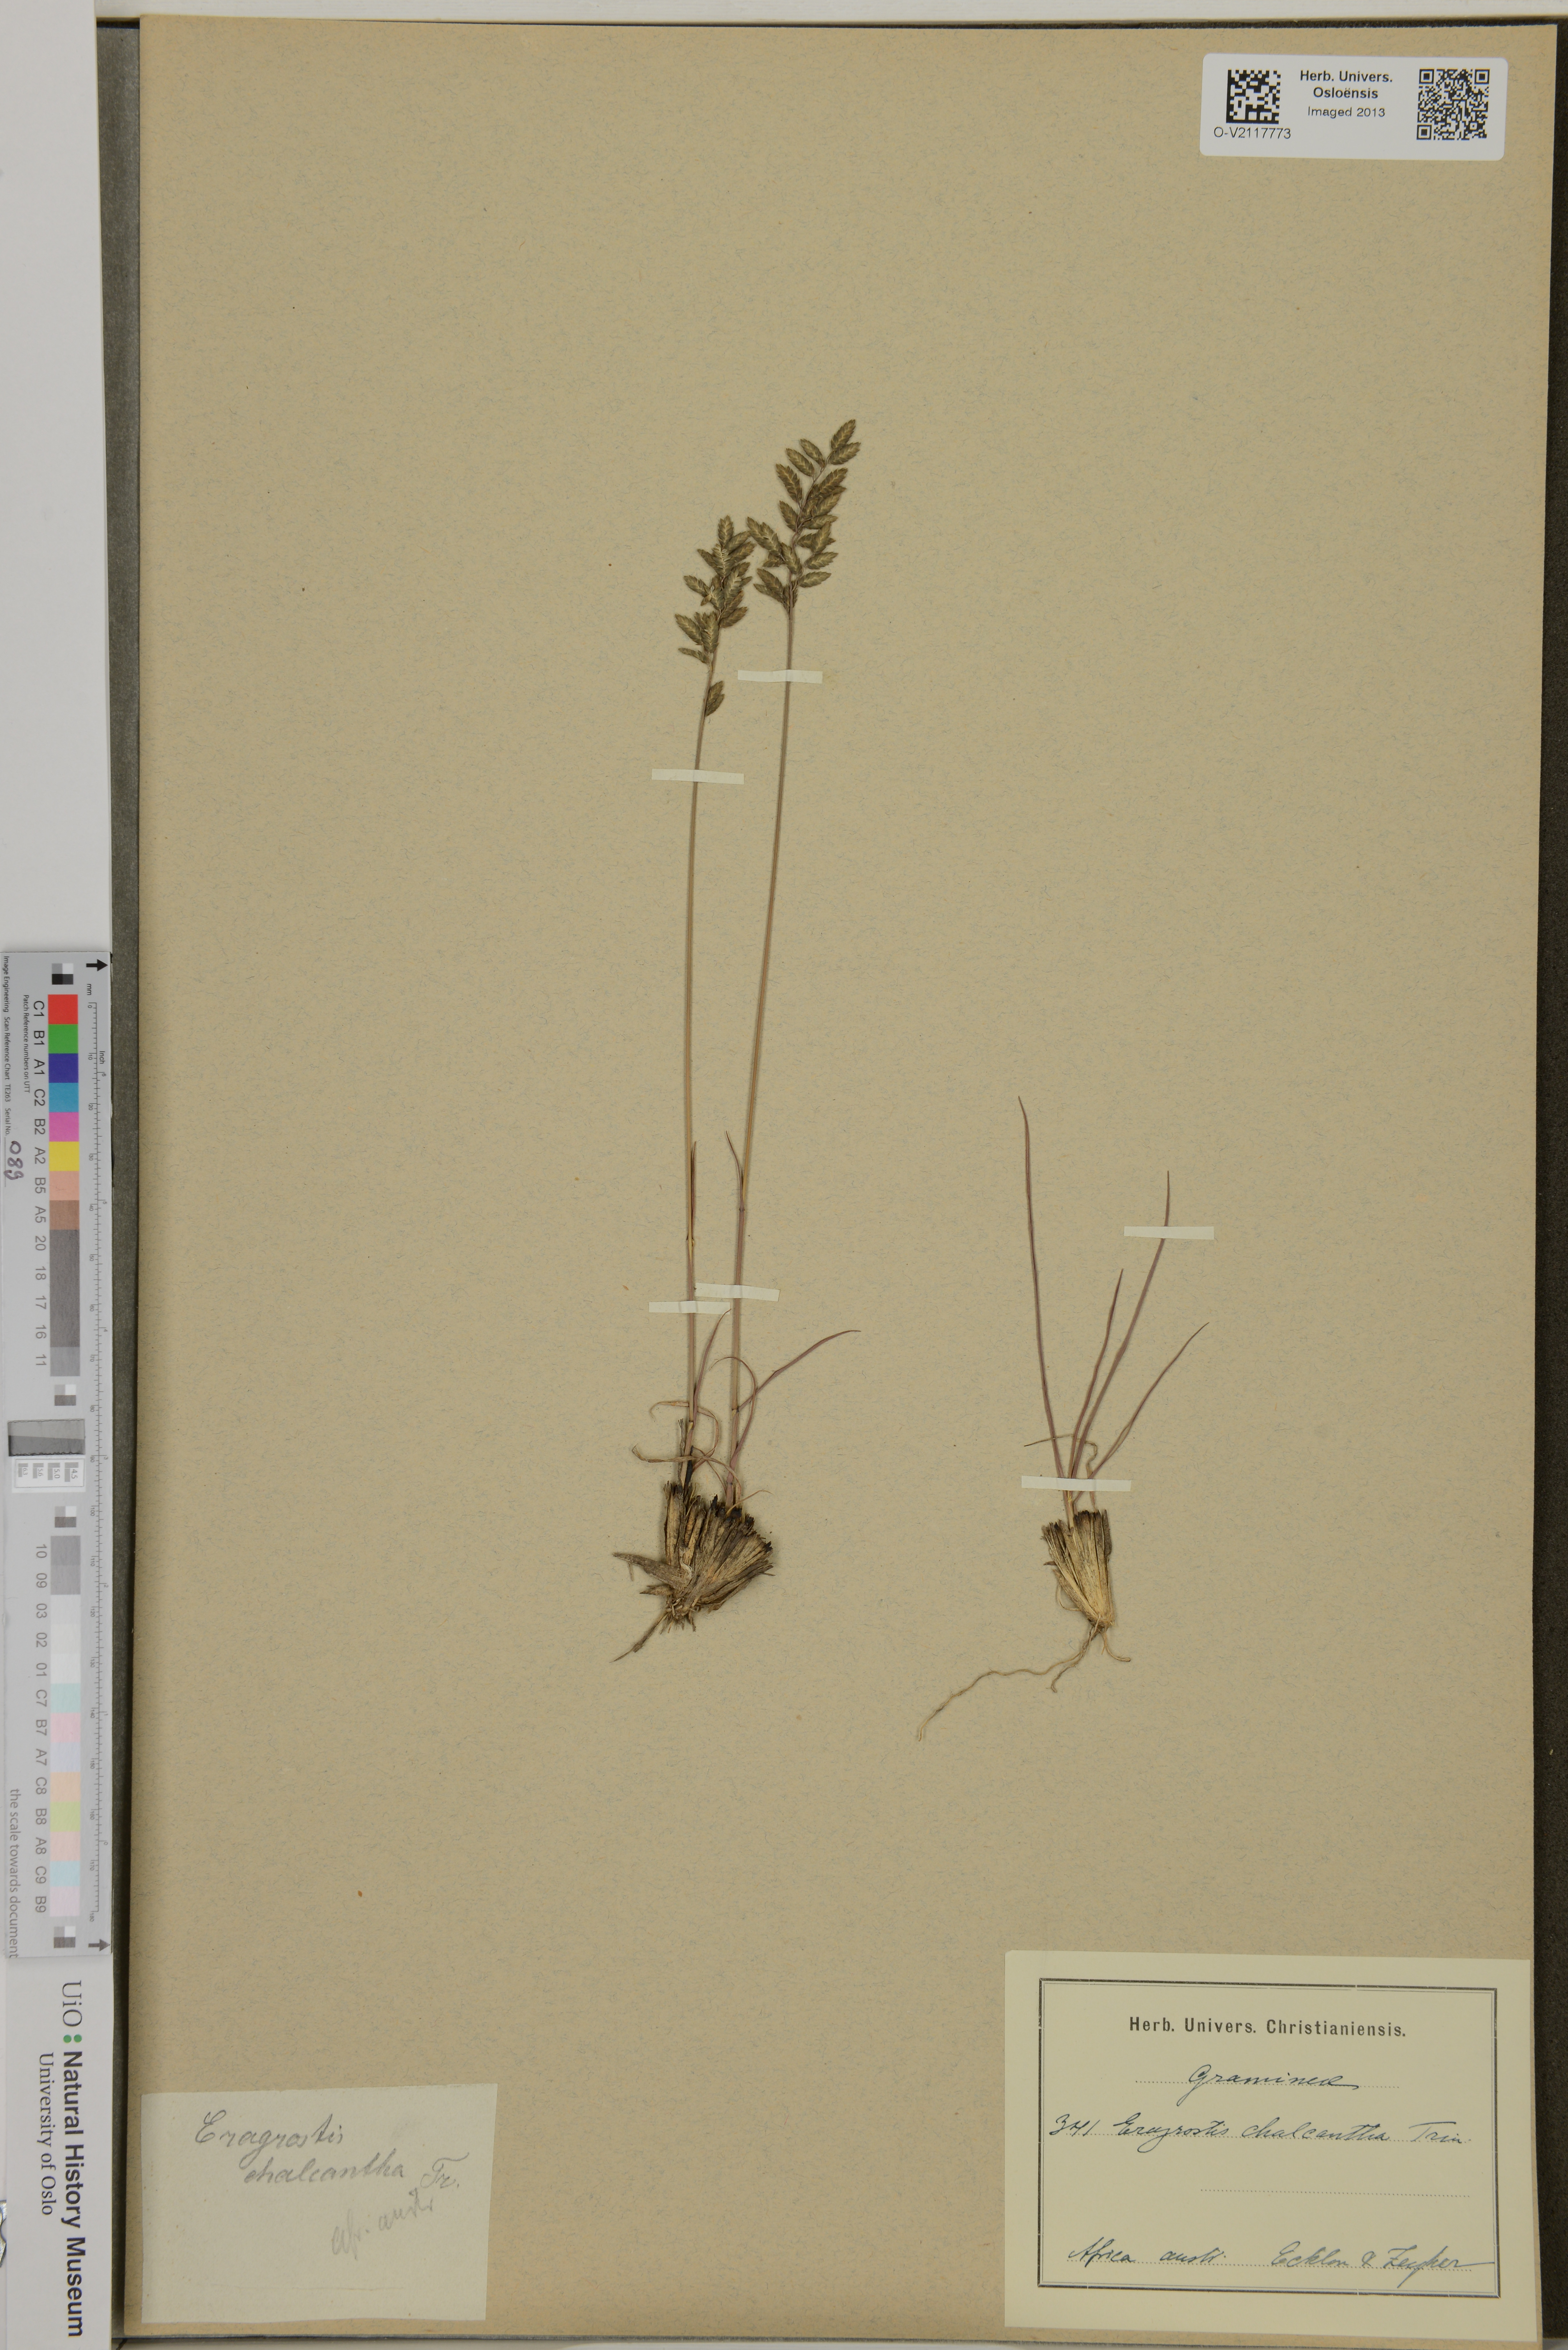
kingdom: Plantae
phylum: Tracheophyta
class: Liliopsida
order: Poales
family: Poaceae
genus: Eragrostis
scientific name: Eragrostis racemosa
